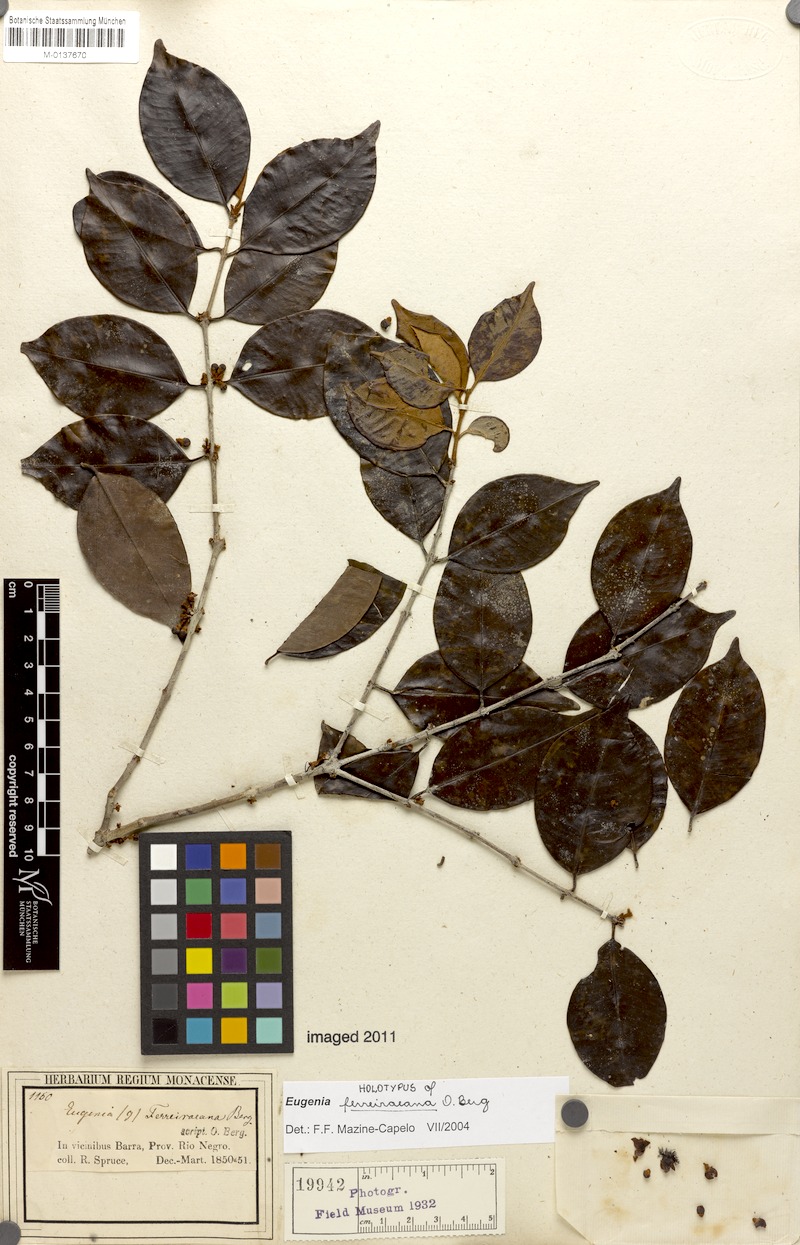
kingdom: Plantae
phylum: Tracheophyta
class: Magnoliopsida
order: Myrtales
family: Myrtaceae
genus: Eugenia
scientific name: Eugenia ferreiraeana
